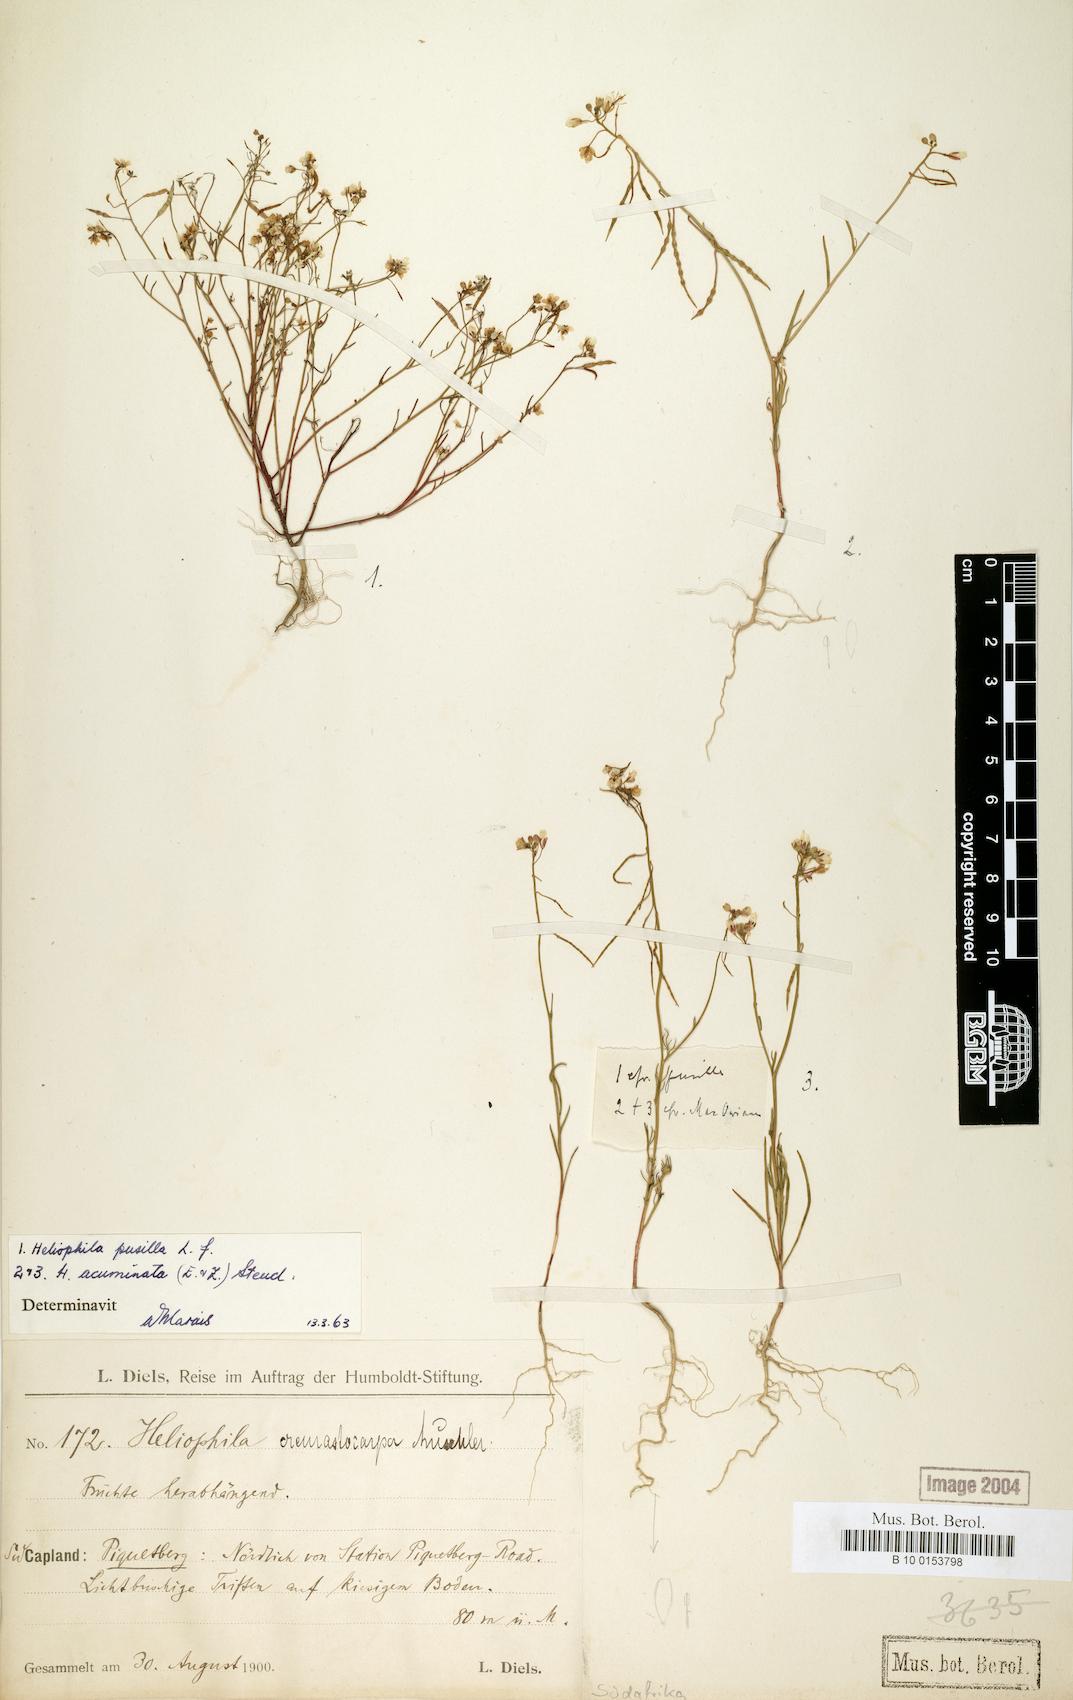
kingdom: Plantae
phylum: Tracheophyta
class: Magnoliopsida
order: Brassicales
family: Brassicaceae
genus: Heliophila
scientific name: Heliophila pusilla
